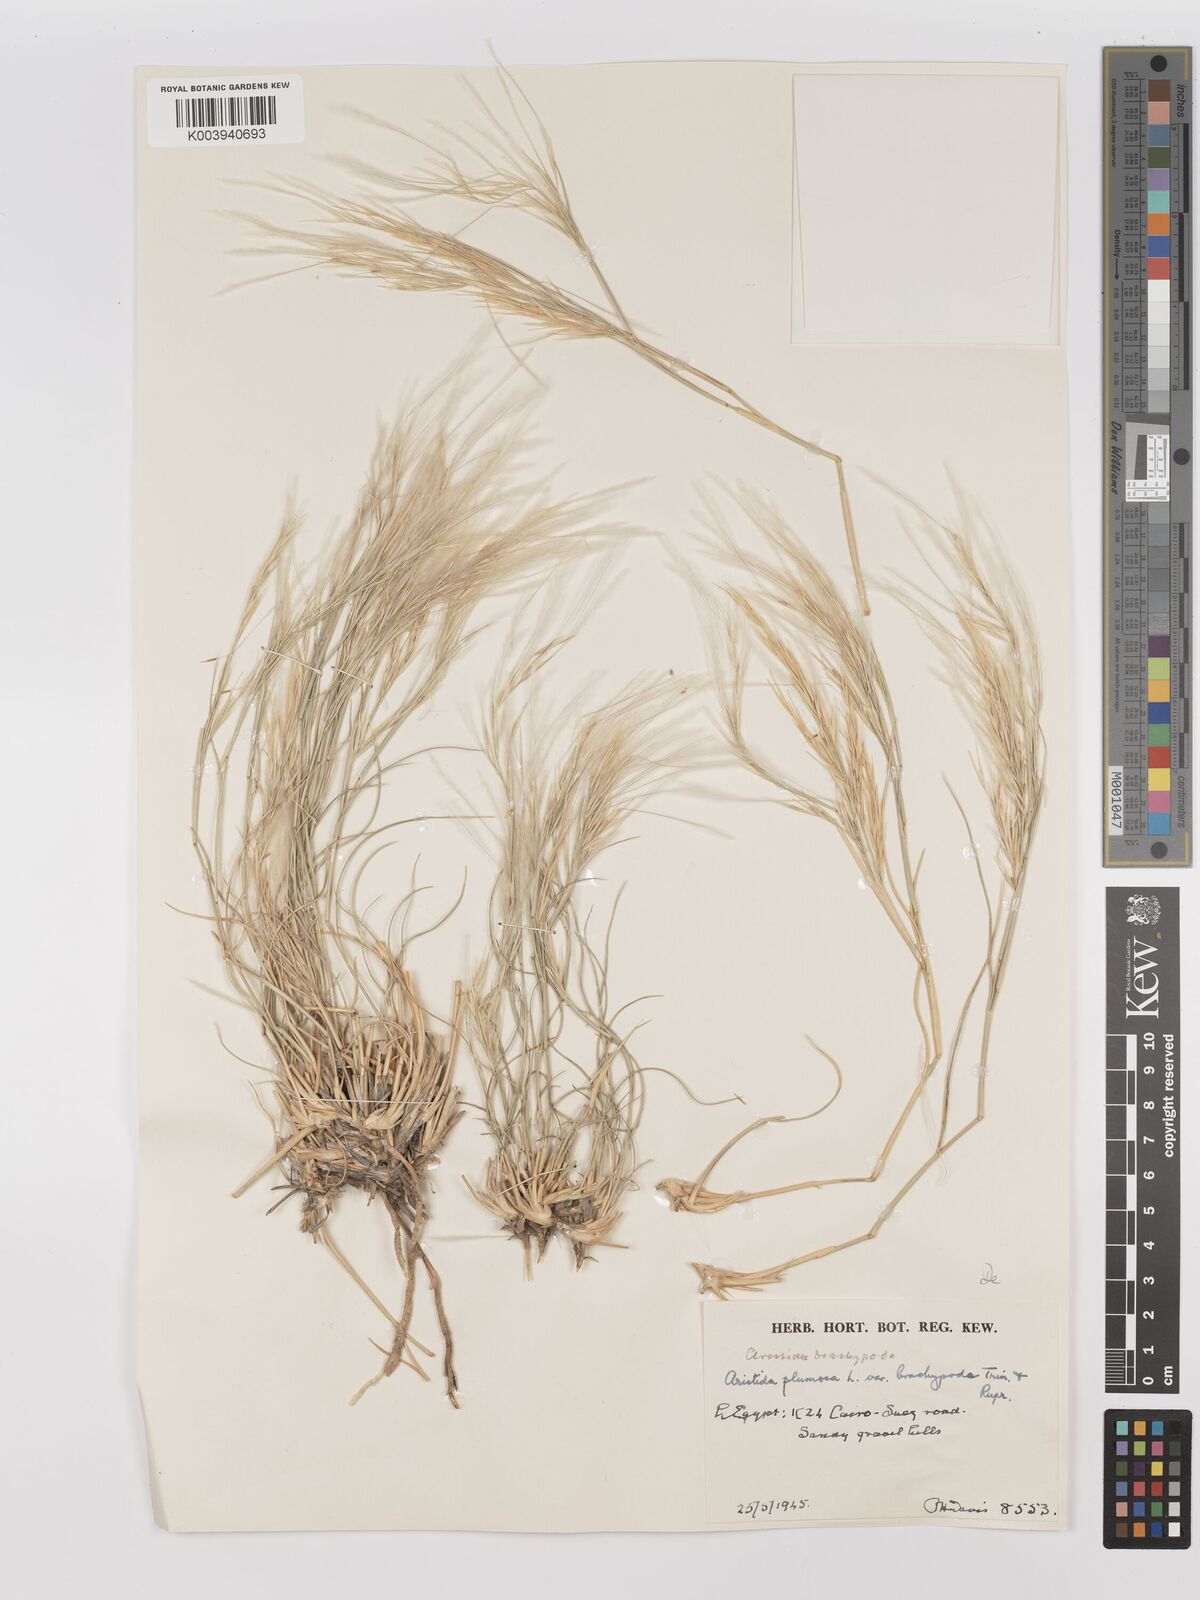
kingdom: Plantae
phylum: Tracheophyta
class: Liliopsida
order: Poales
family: Poaceae
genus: Stipagrostis
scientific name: Stipagrostis plumosa
